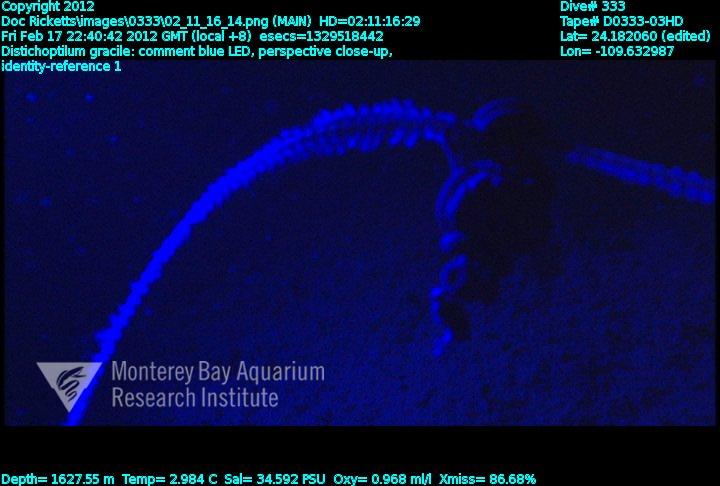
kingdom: Animalia
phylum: Cnidaria
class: Anthozoa
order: Scleralcyonacea
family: Protoptilidae
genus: Distichoptilum
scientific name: Distichoptilum gracile
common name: Slender sea pen
